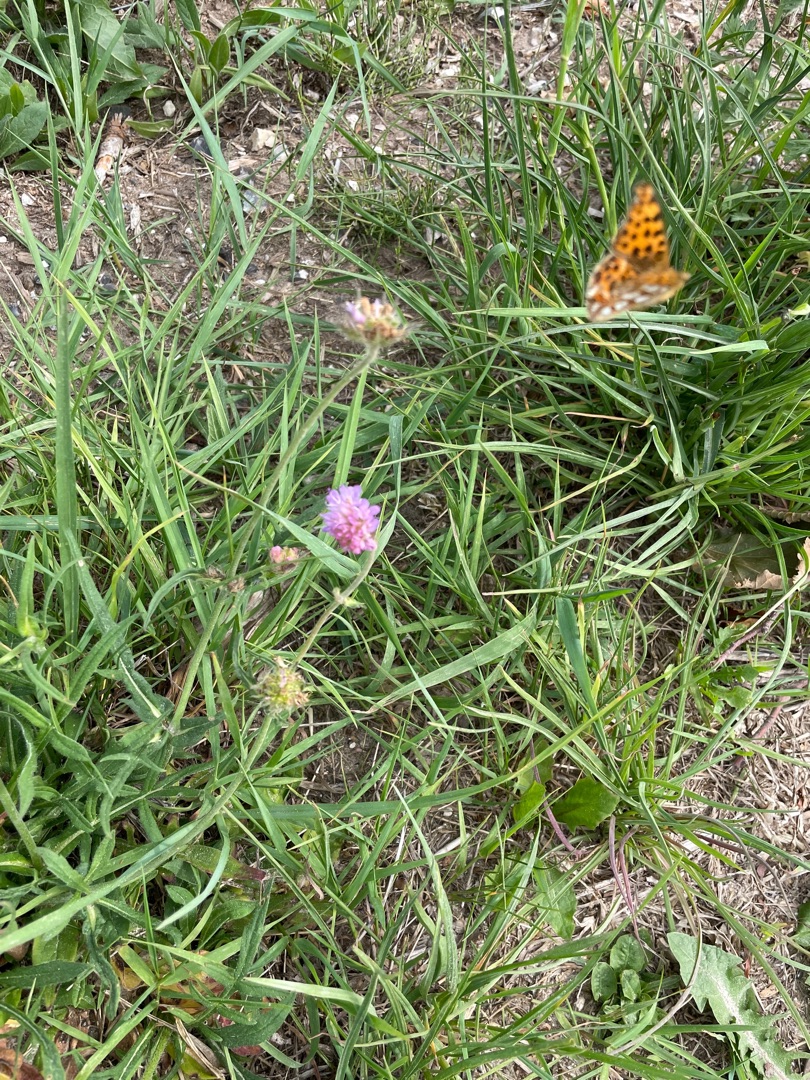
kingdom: Animalia
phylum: Arthropoda
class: Insecta
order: Lepidoptera
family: Nymphalidae
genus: Issoria
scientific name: Issoria lathonia
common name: Storplettet perlemorsommerfugl
